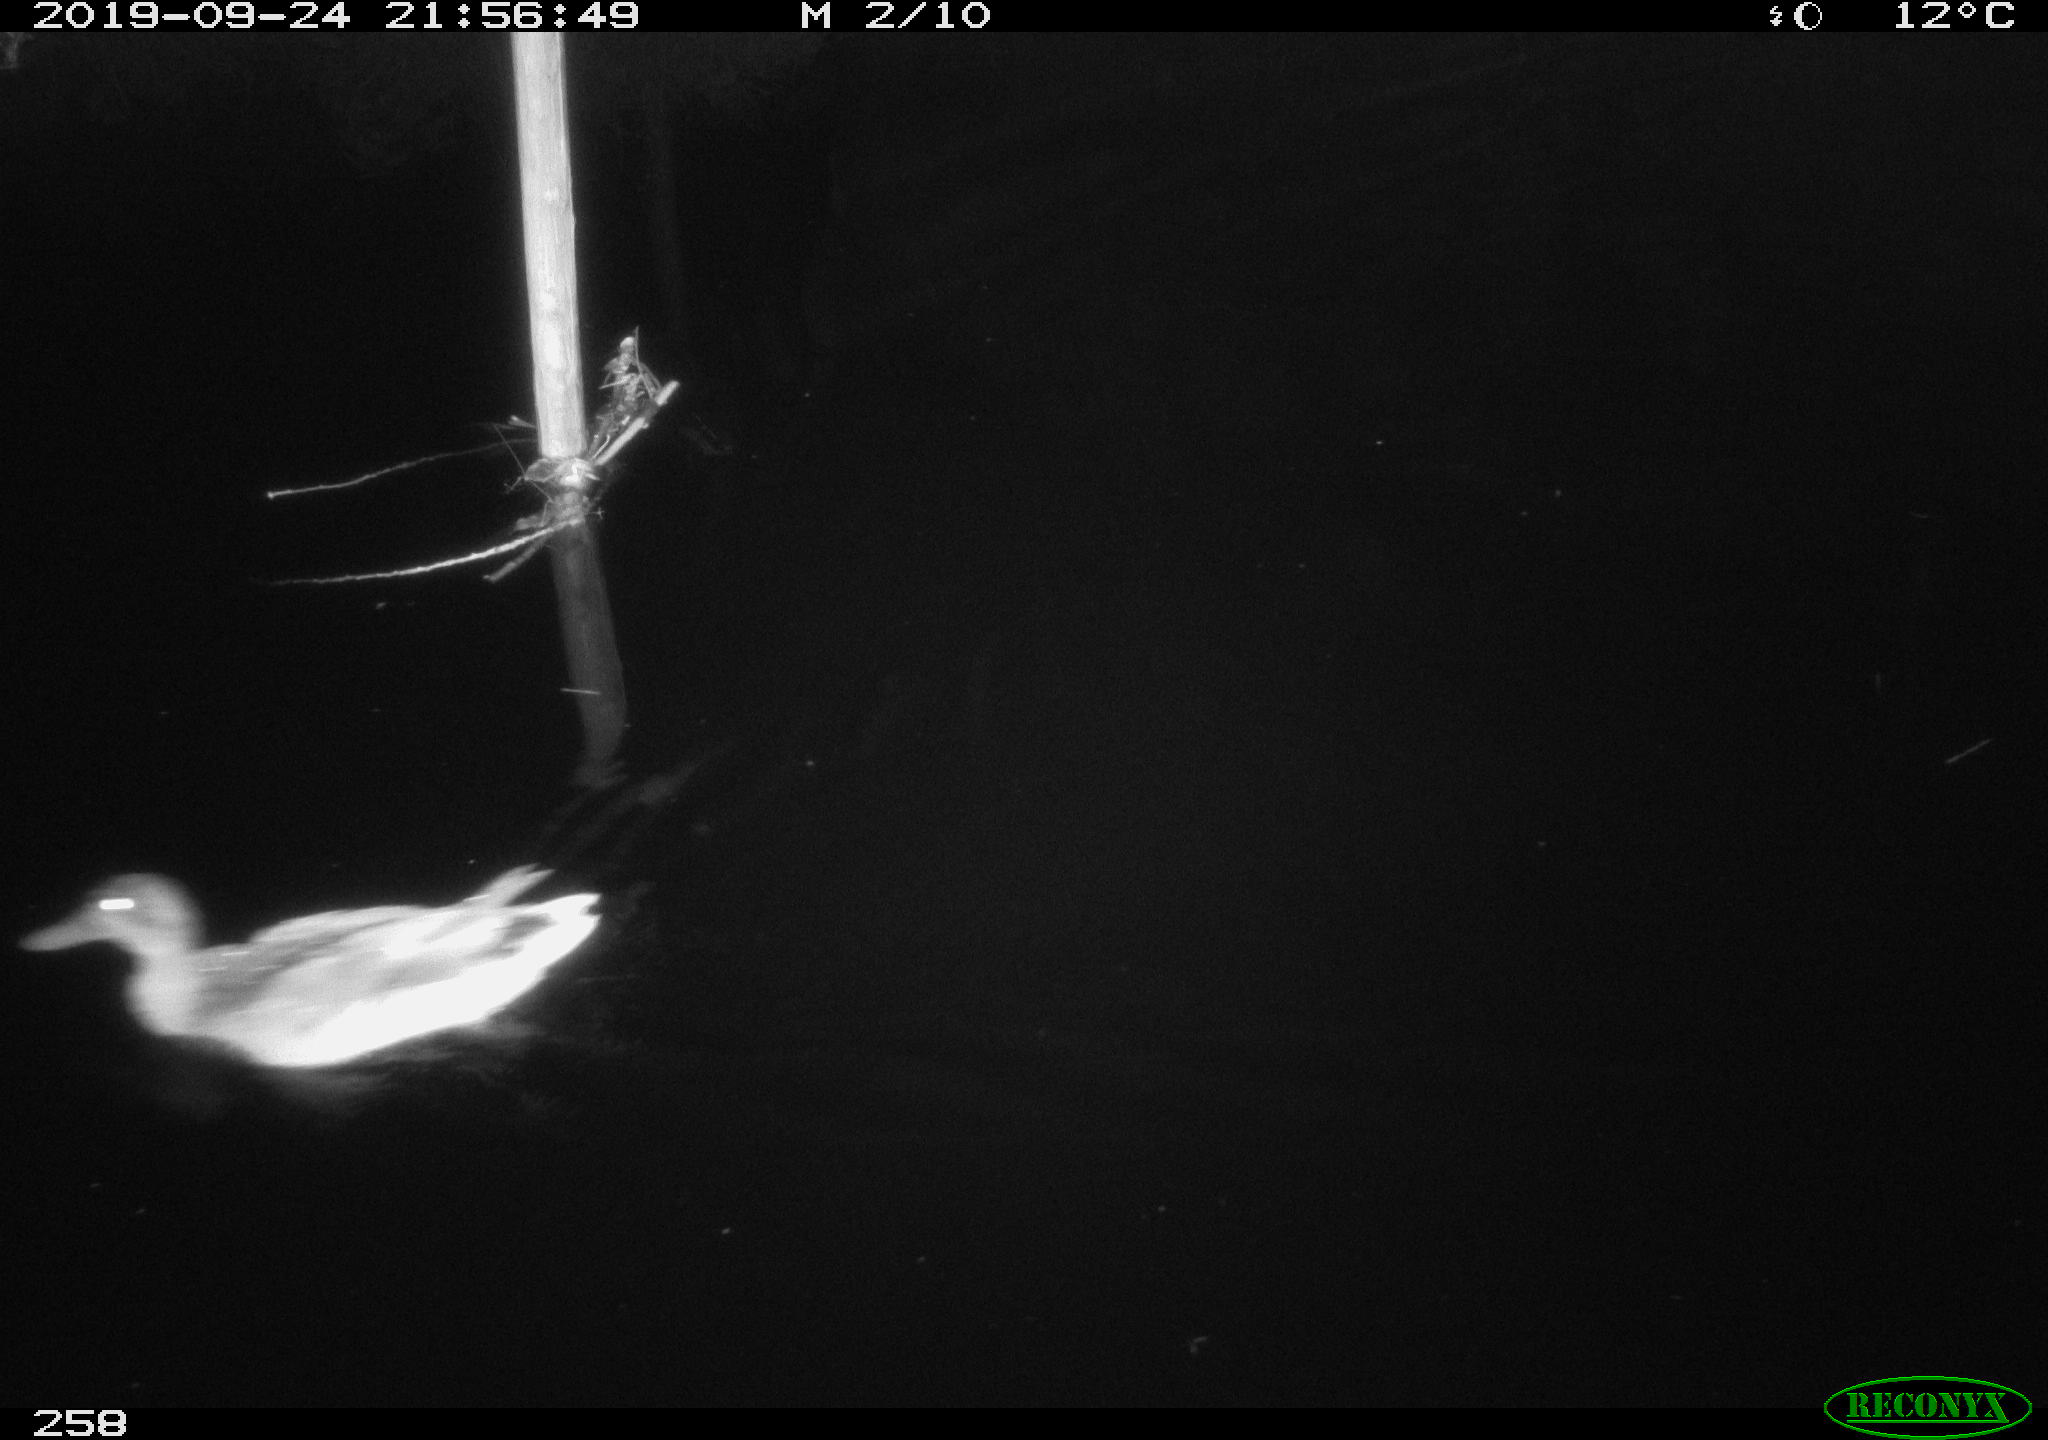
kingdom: Animalia
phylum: Chordata
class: Aves
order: Anseriformes
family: Anatidae
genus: Anas
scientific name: Anas platyrhynchos
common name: Mallard
